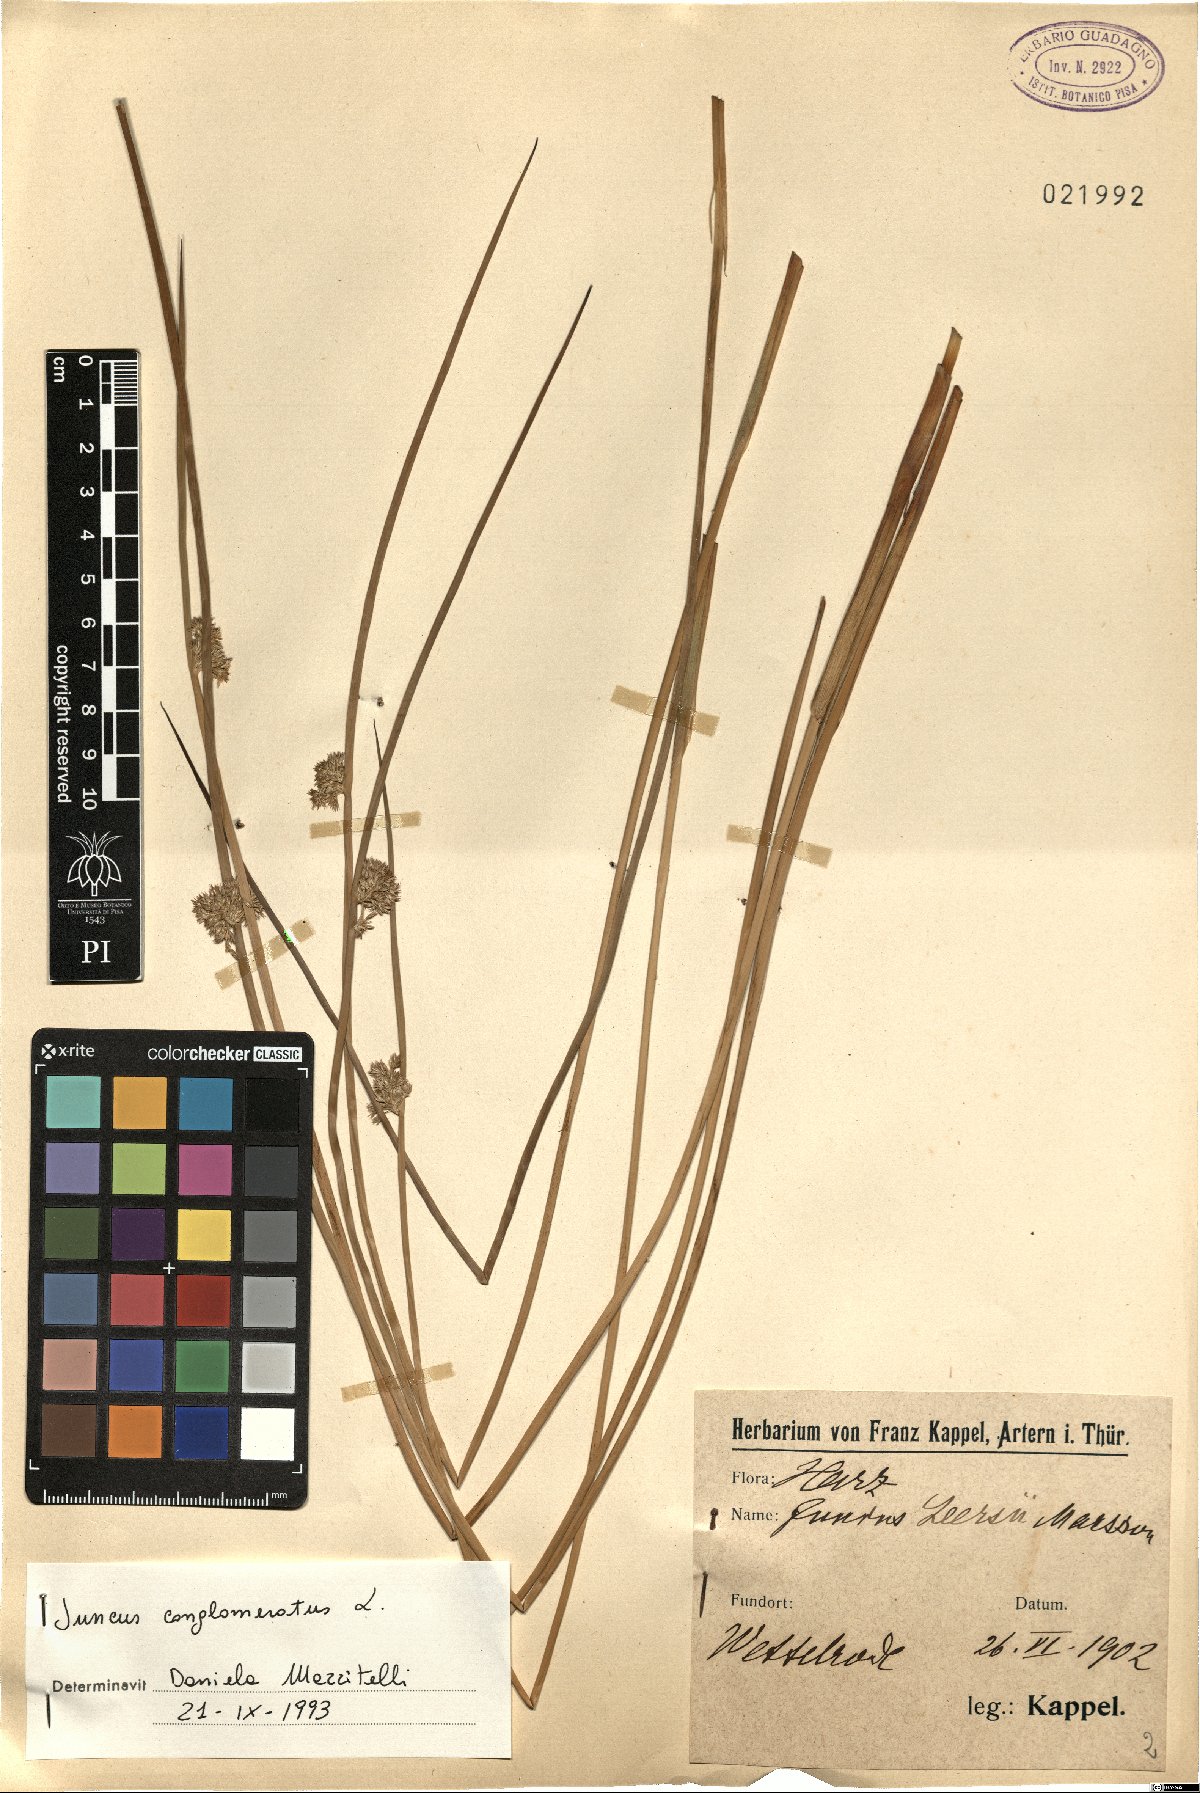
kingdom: Plantae
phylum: Tracheophyta
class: Liliopsida
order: Poales
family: Juncaceae
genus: Juncus
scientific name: Juncus conglomeratus
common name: Compact rush
